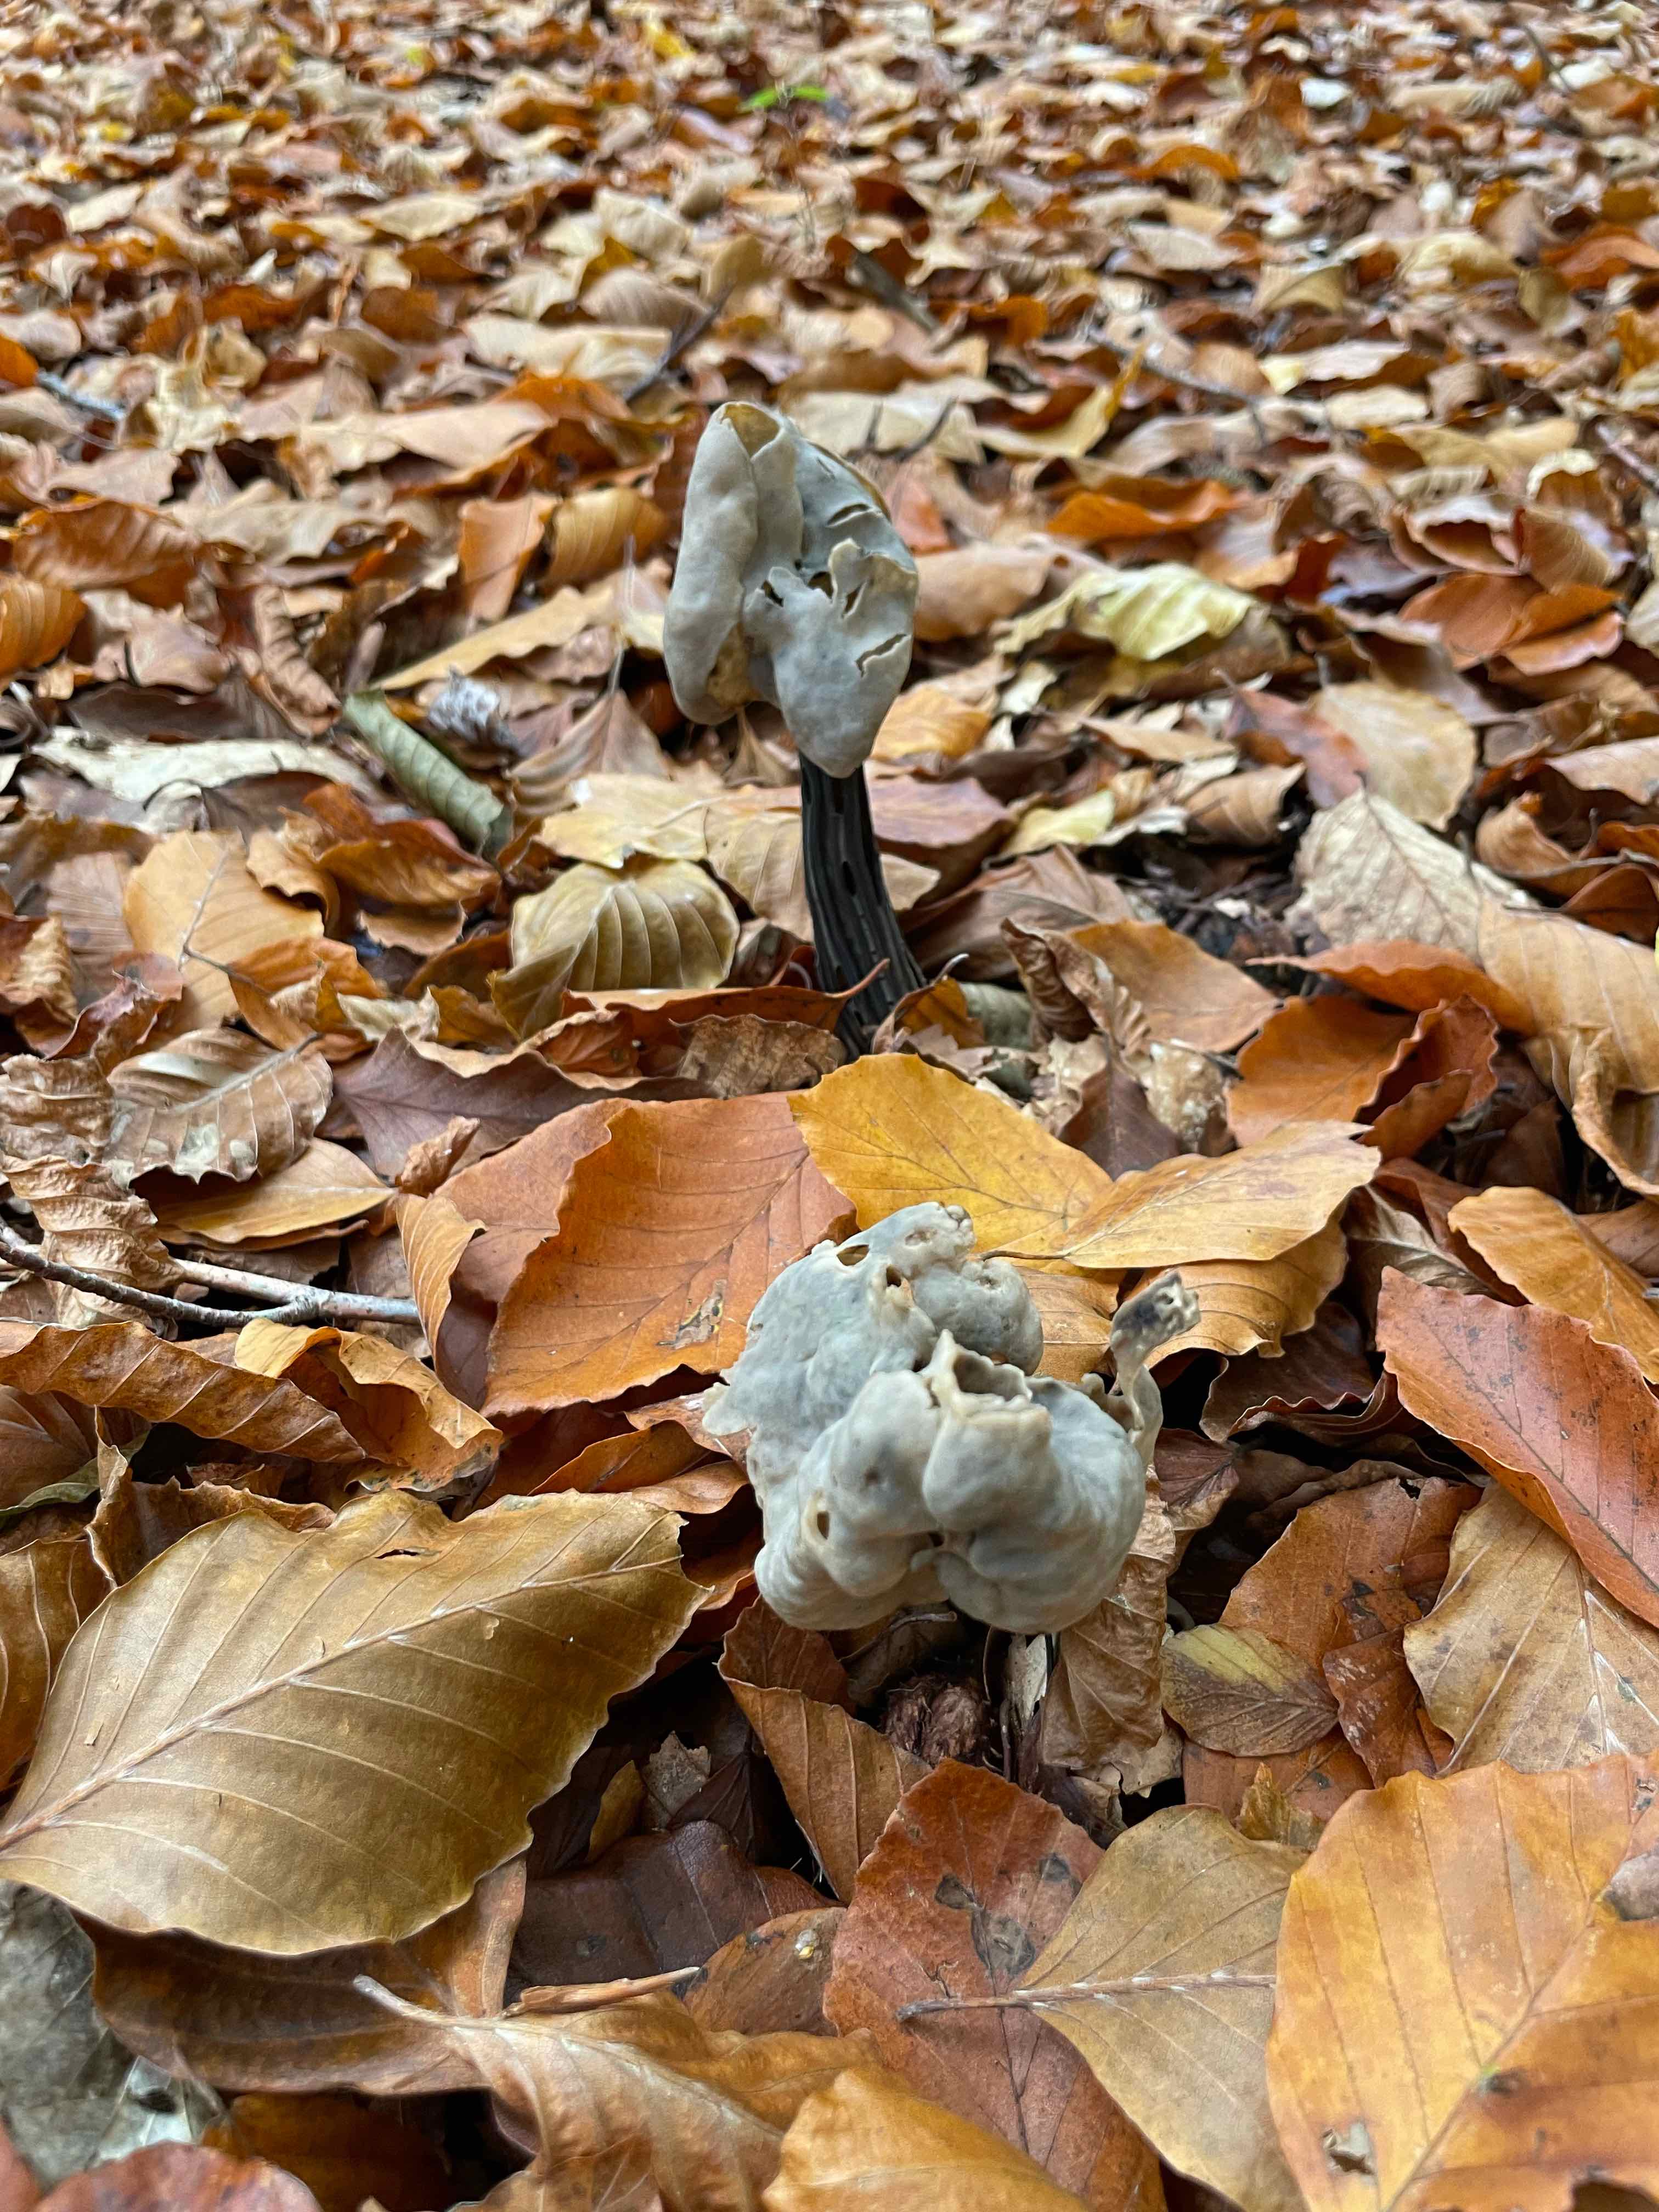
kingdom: Fungi
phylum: Ascomycota
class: Pezizomycetes
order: Pezizales
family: Helvellaceae
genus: Helvella
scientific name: Helvella lacunosa
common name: grubet foldhat
